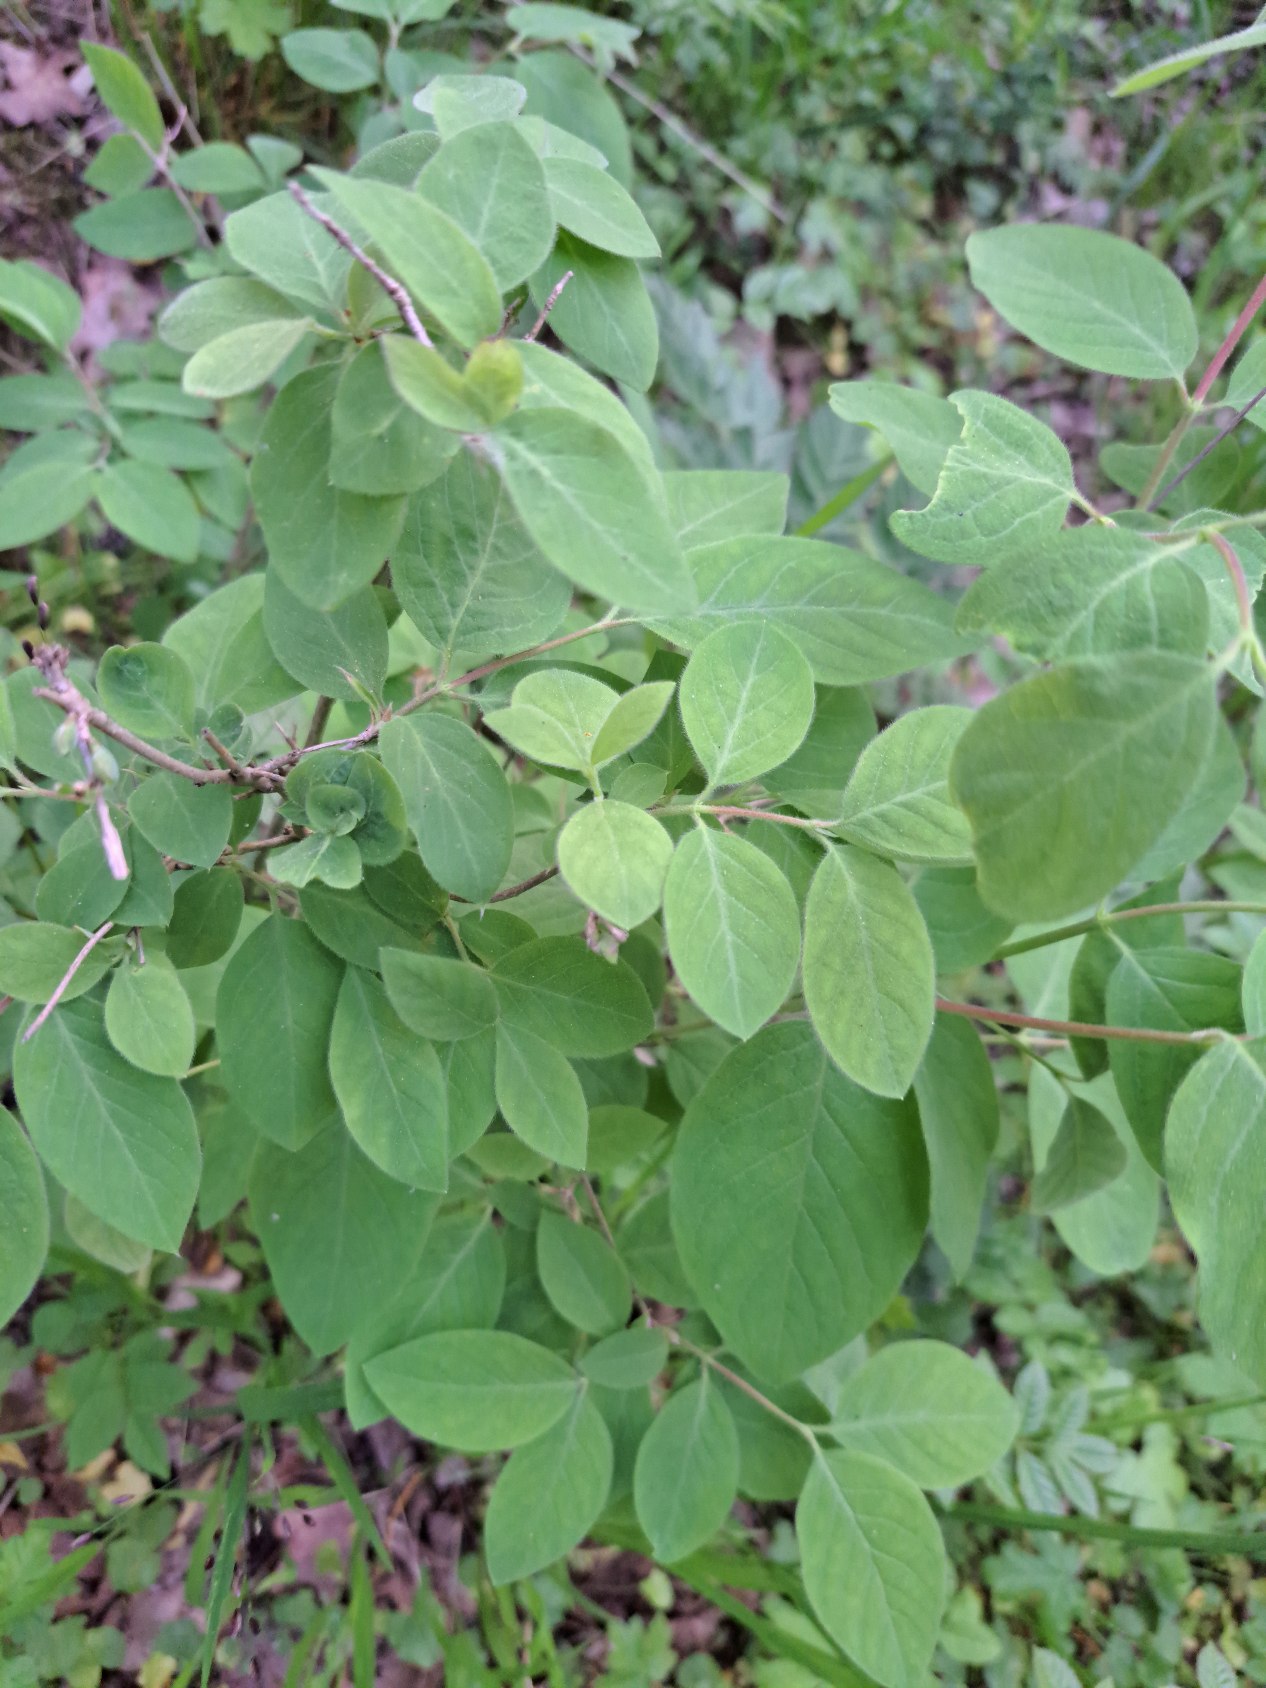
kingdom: Plantae
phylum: Tracheophyta
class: Magnoliopsida
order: Dipsacales
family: Caprifoliaceae
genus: Lonicera
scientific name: Lonicera xylosteum
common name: Dunet gedeblad
